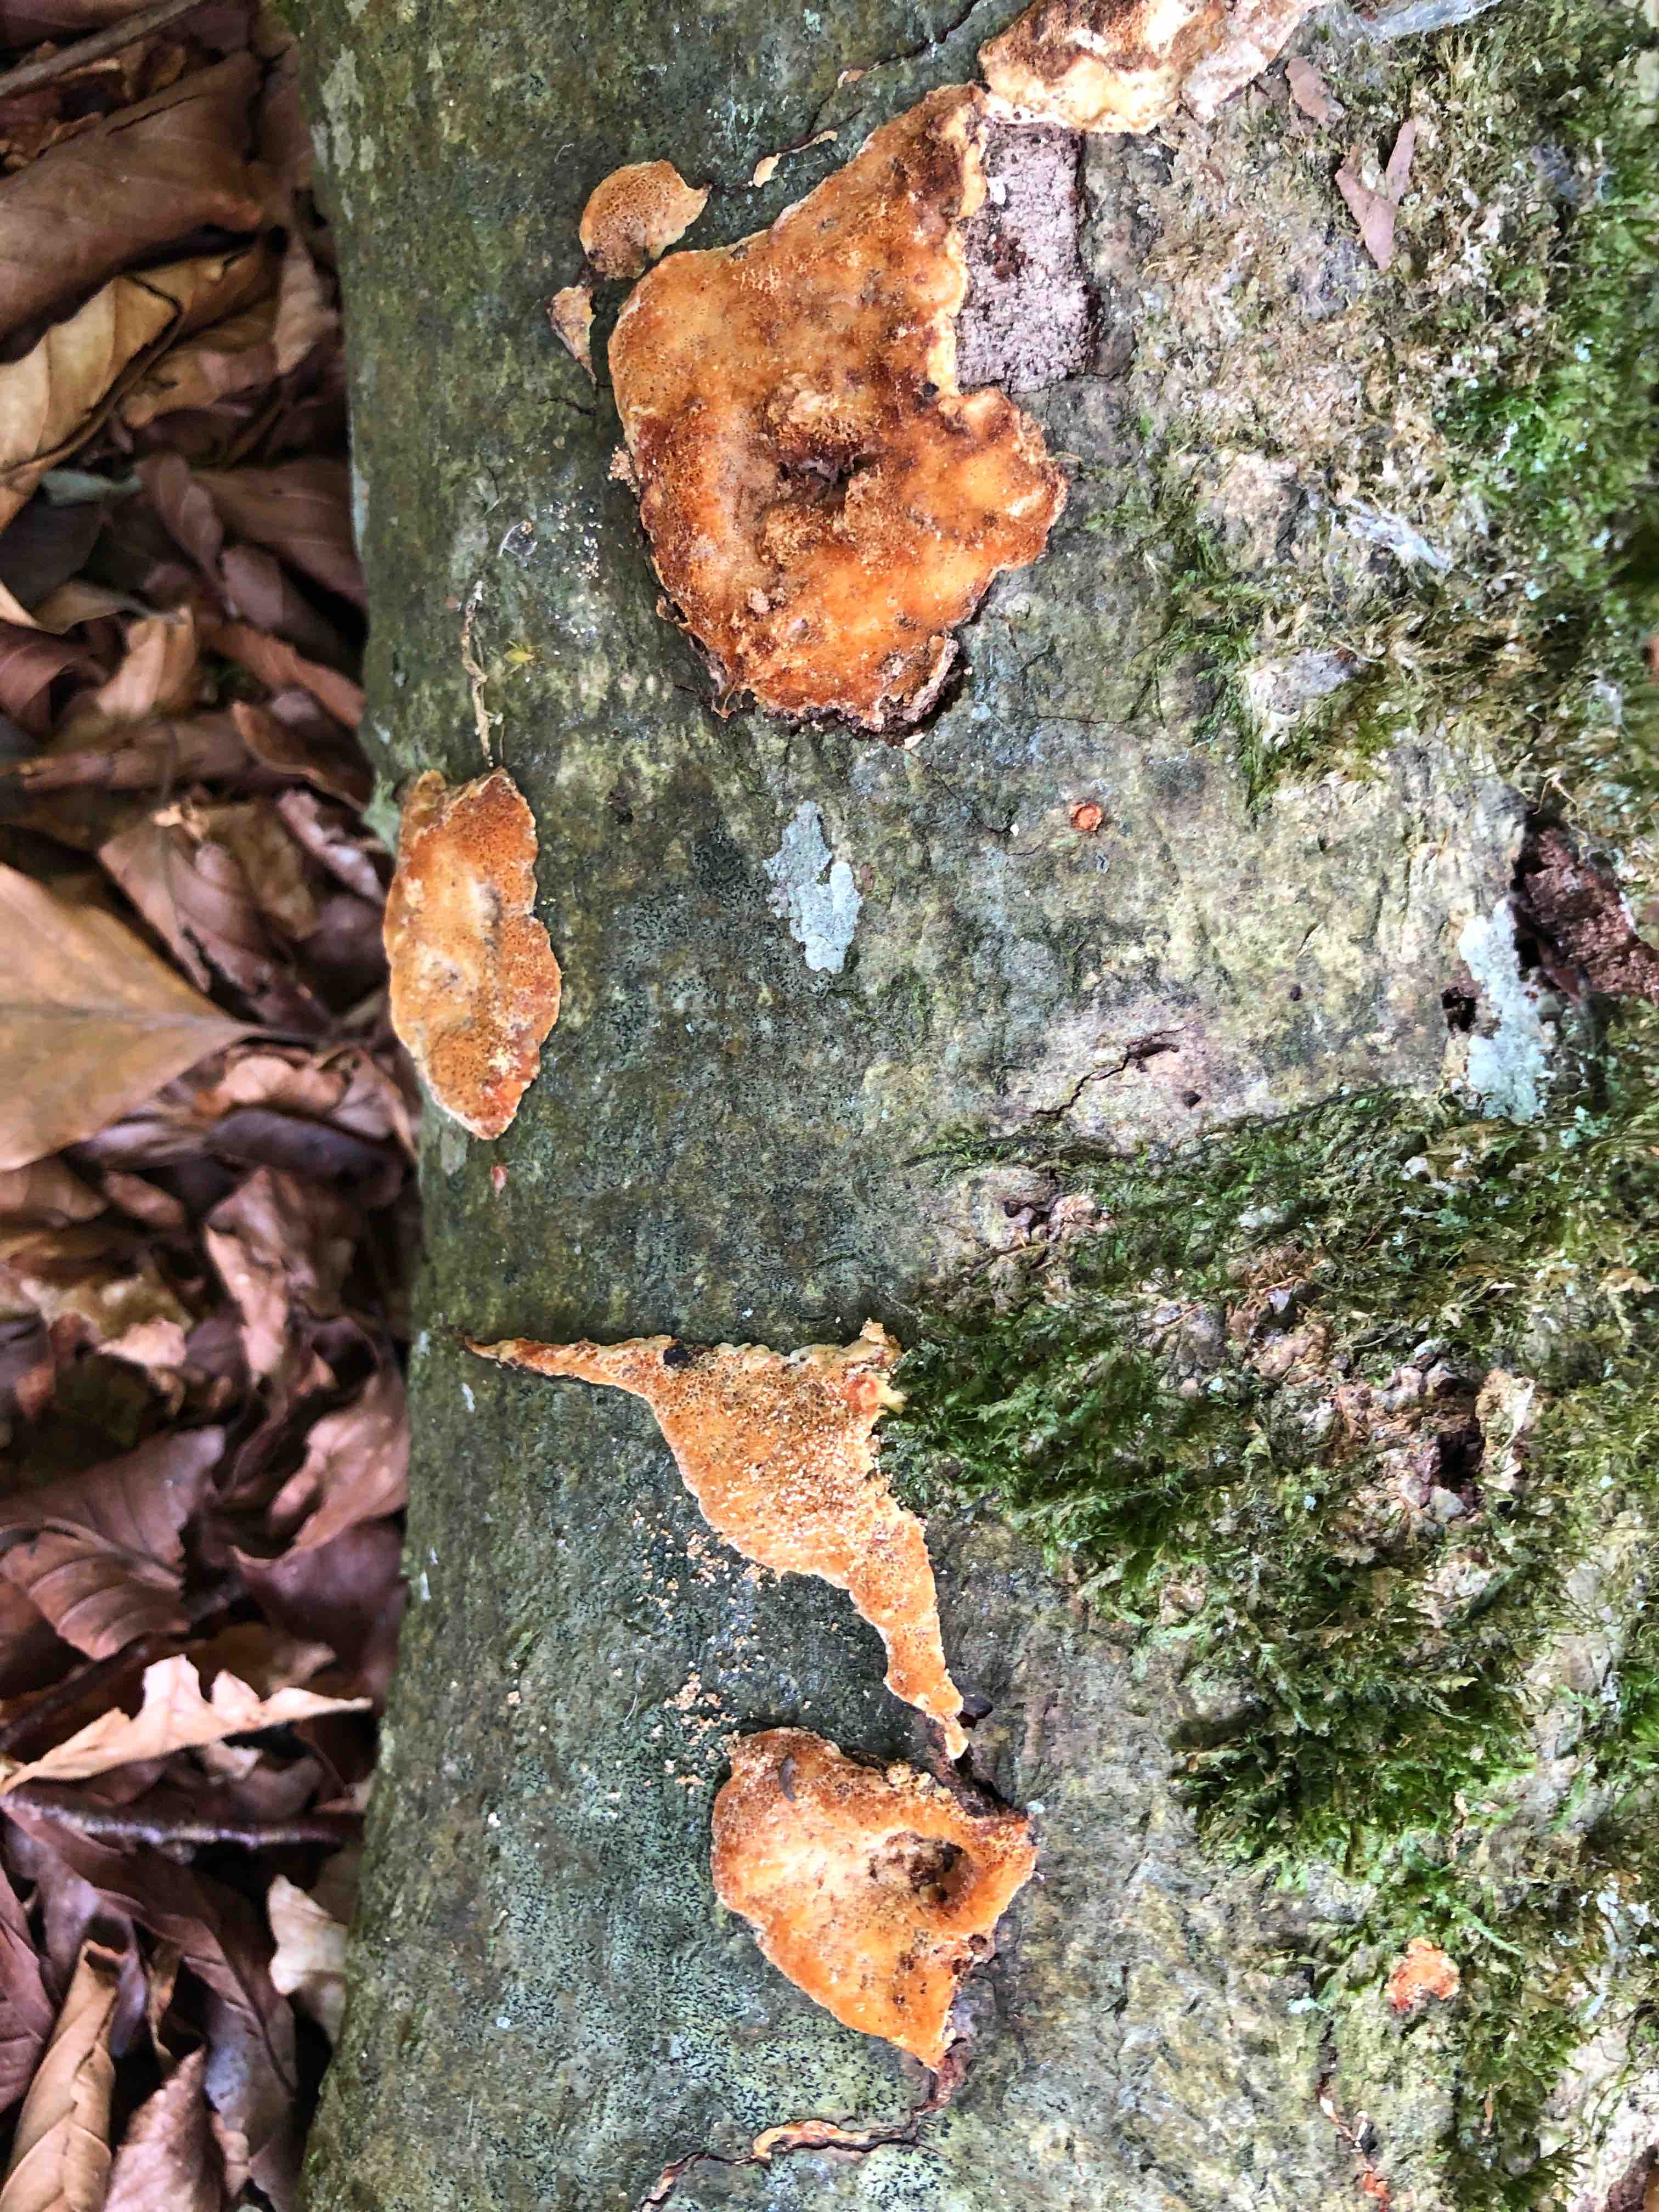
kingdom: Fungi
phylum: Basidiomycota
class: Agaricomycetes
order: Polyporales
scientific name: Polyporales
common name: poresvampordenen
